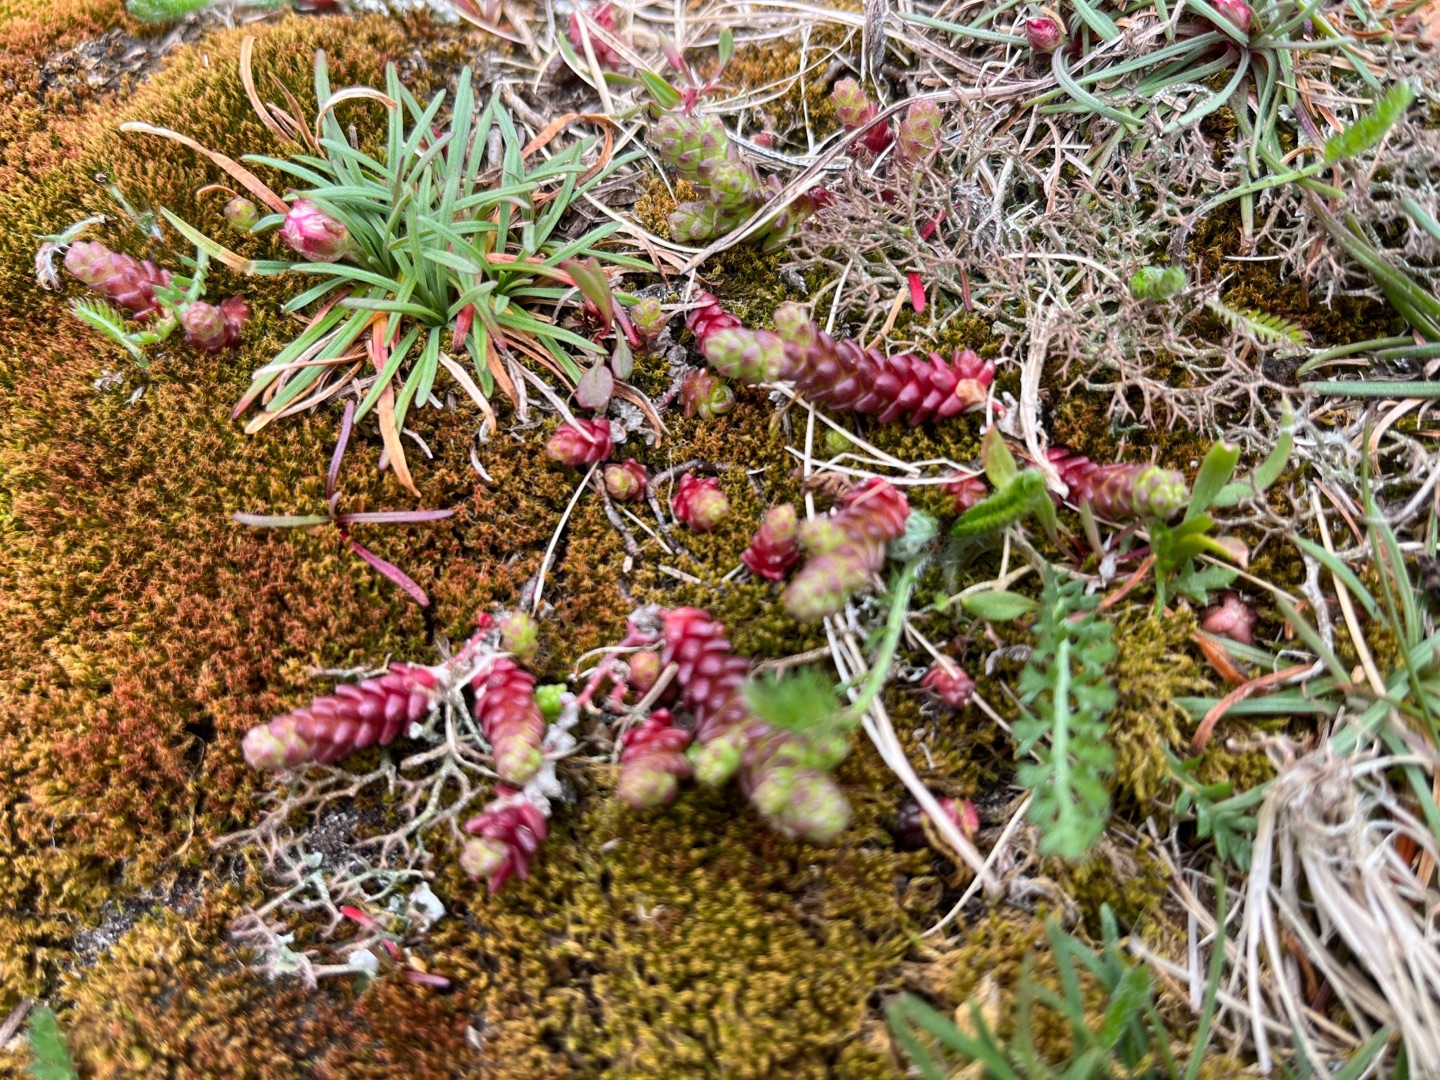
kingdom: Plantae
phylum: Tracheophyta
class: Magnoliopsida
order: Saxifragales
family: Crassulaceae
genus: Sedum
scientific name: Sedum acre
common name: Bidende stenurt
